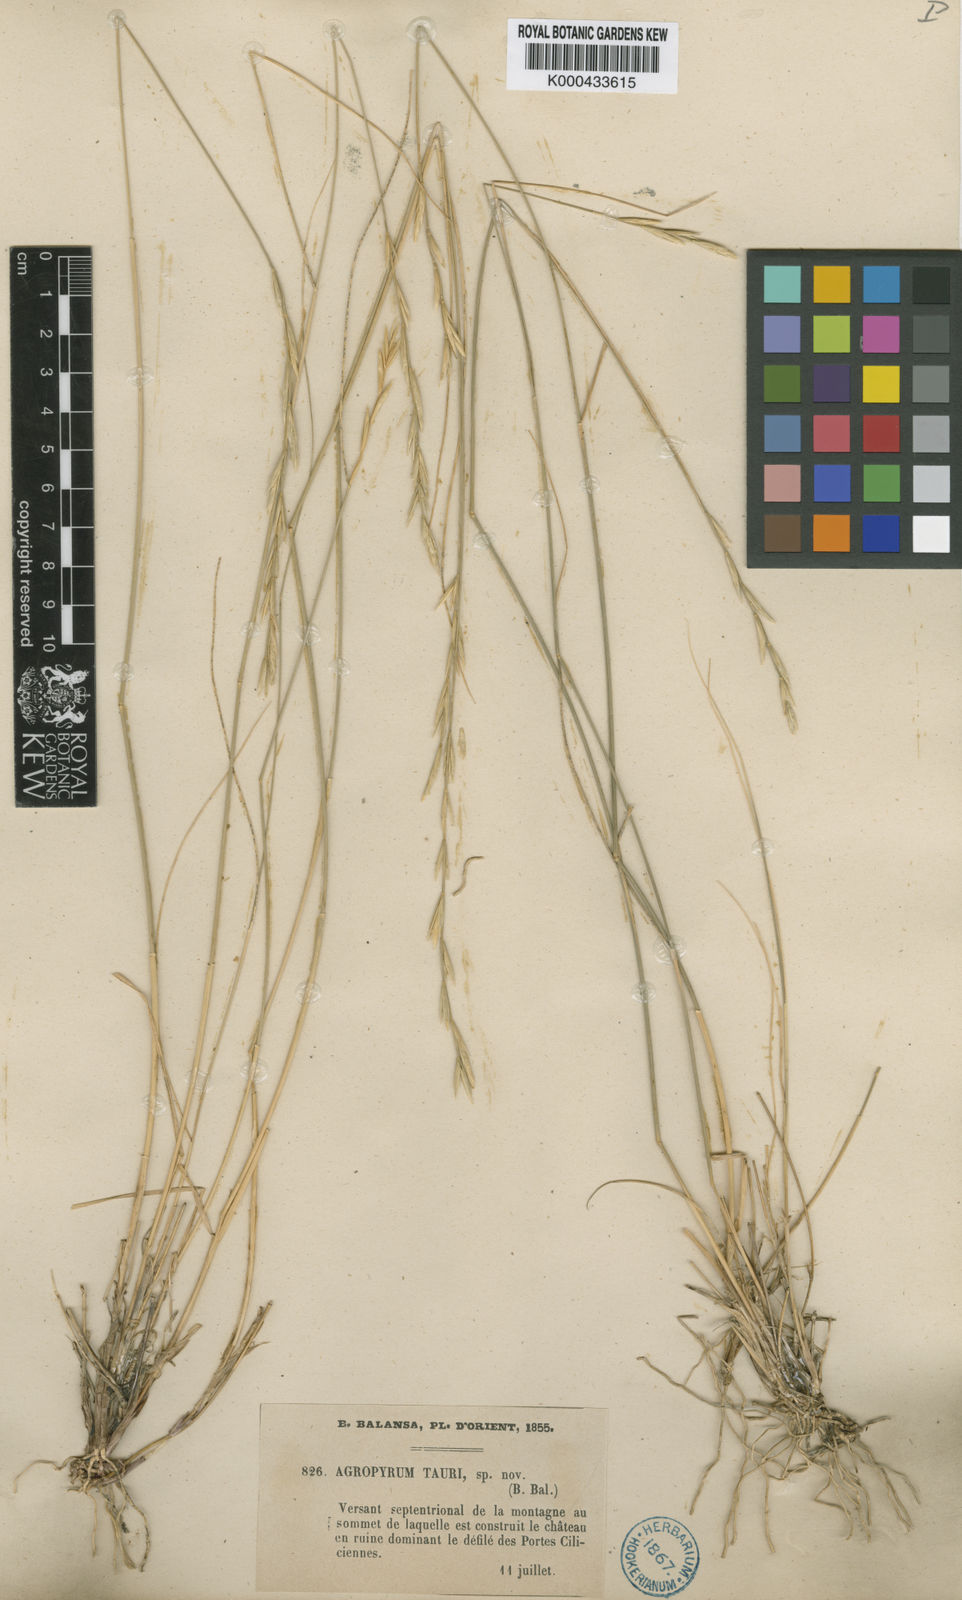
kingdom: Plantae
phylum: Tracheophyta
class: Liliopsida
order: Poales
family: Poaceae
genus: Pseudoroegneria
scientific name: Pseudoroegneria tauri
